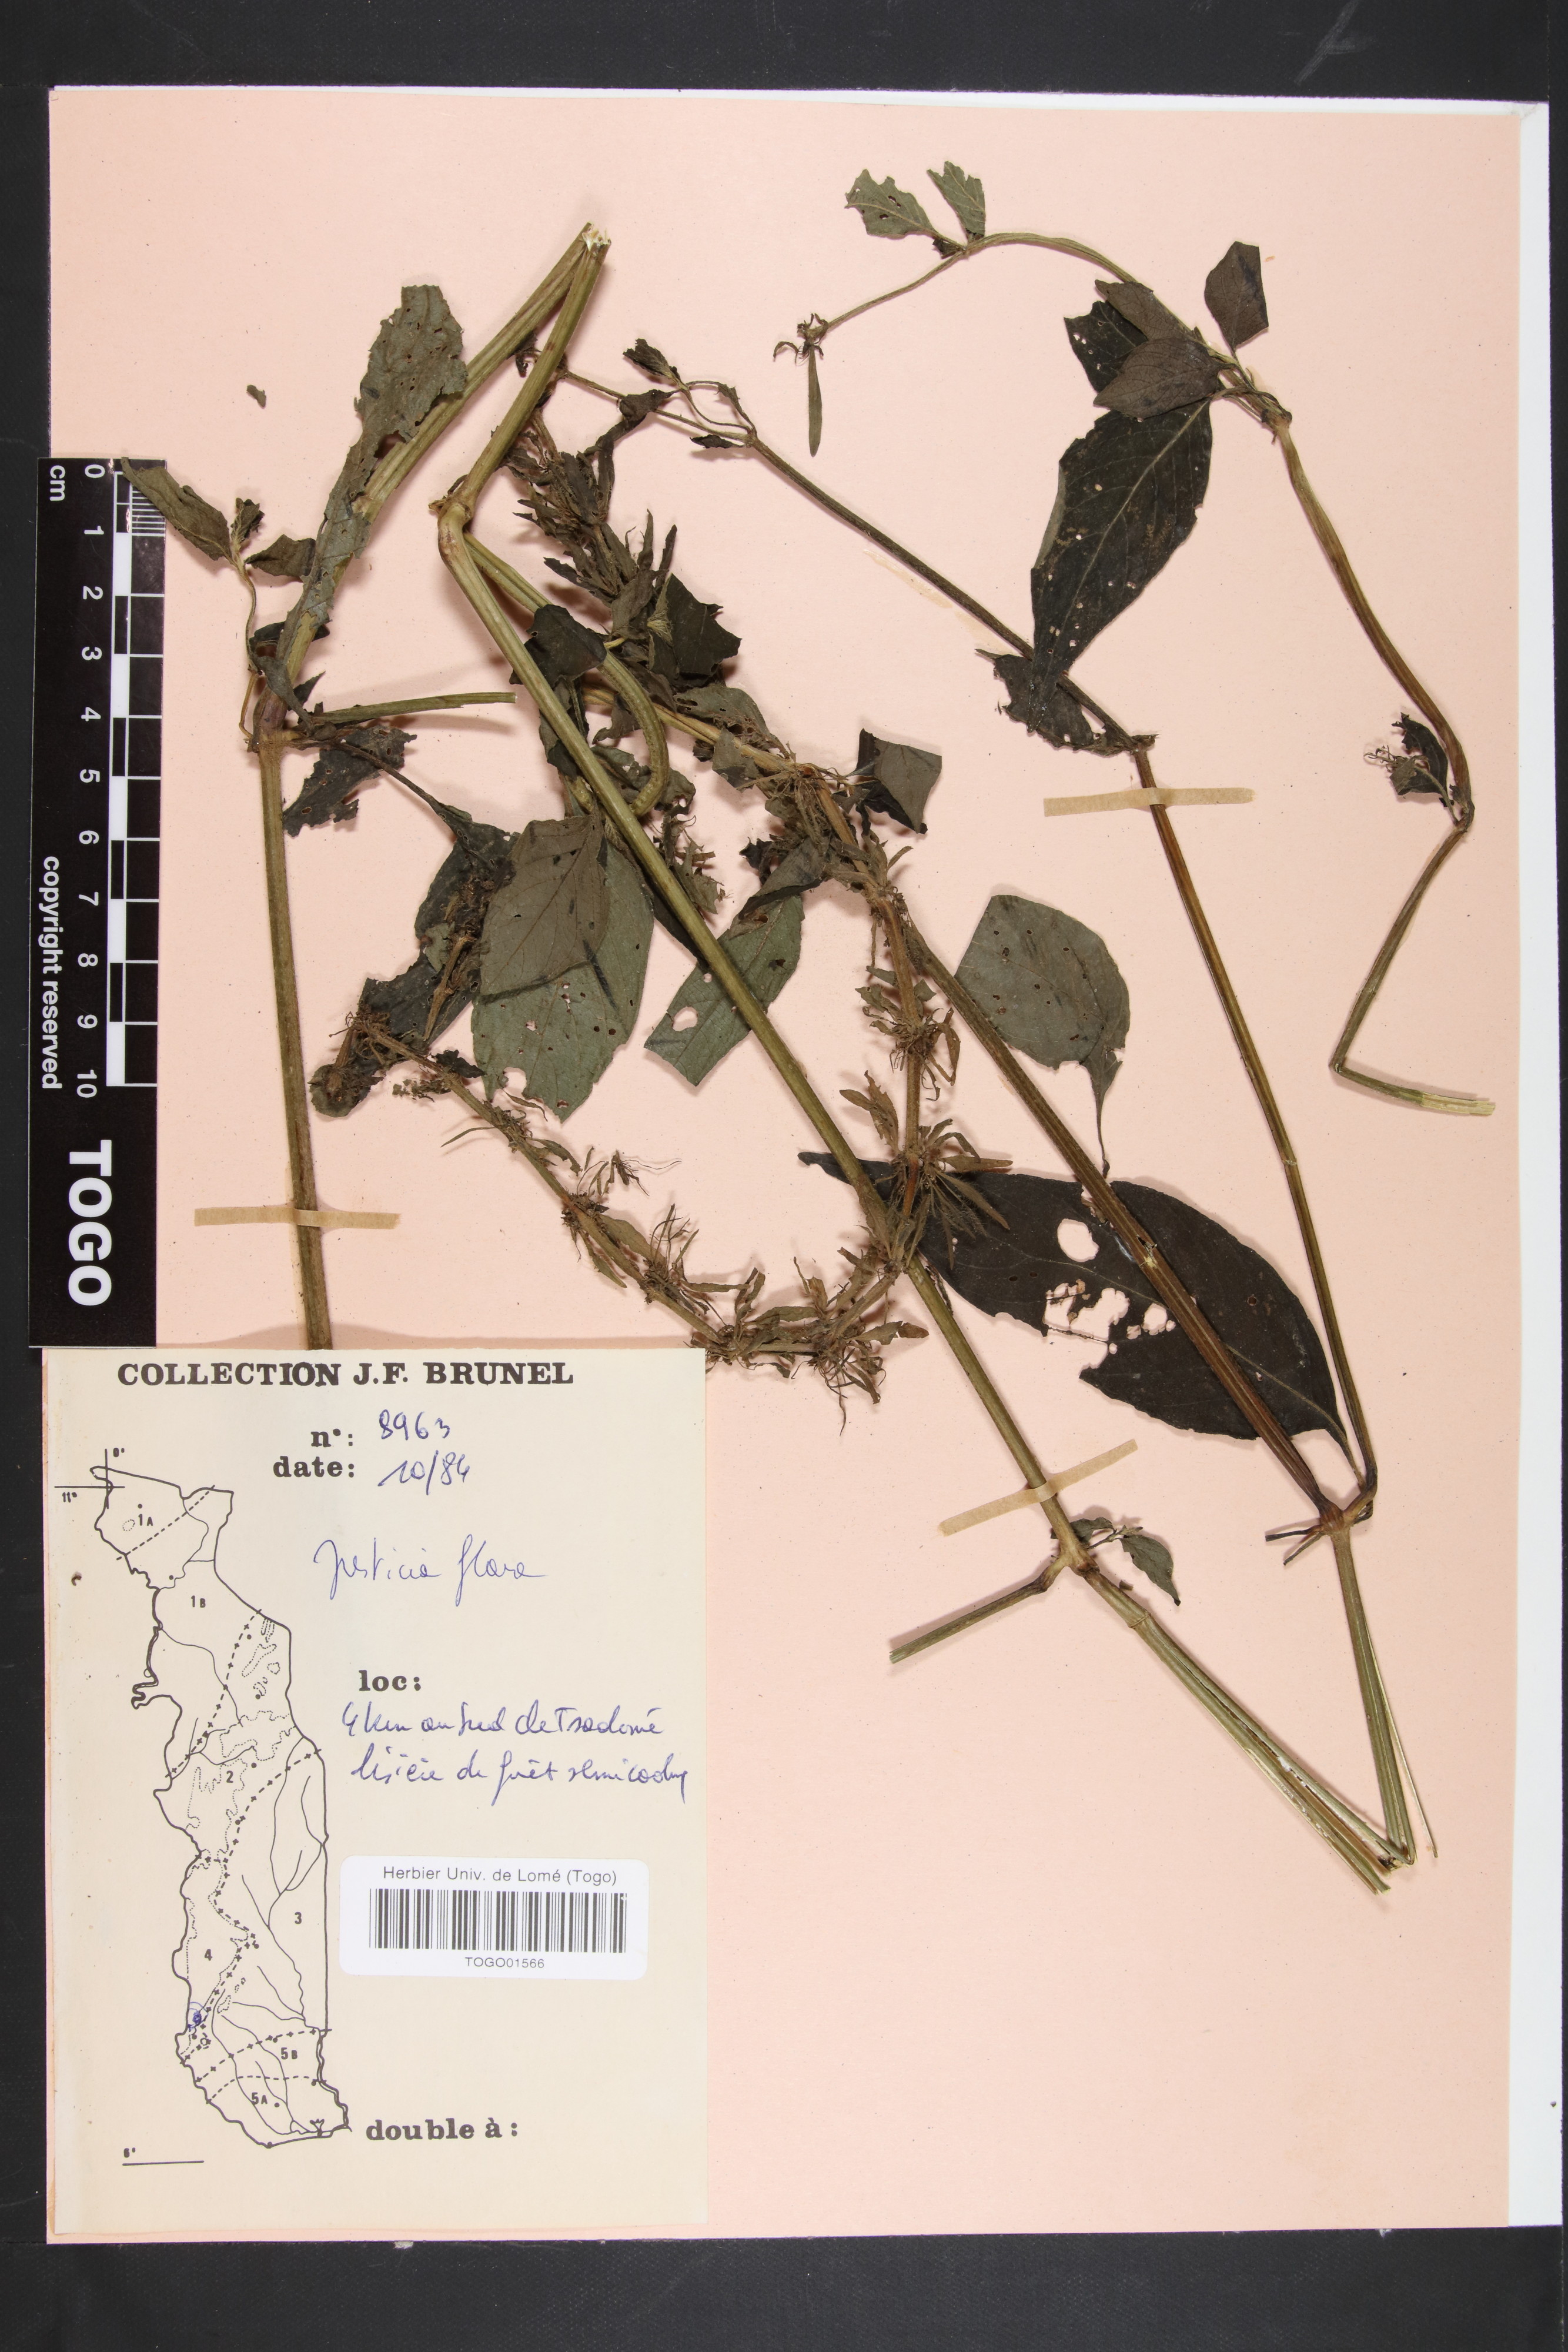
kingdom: Plantae
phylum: Tracheophyta
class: Magnoliopsida
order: Lamiales
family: Acanthaceae
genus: Justicia
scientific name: Justicia flava
